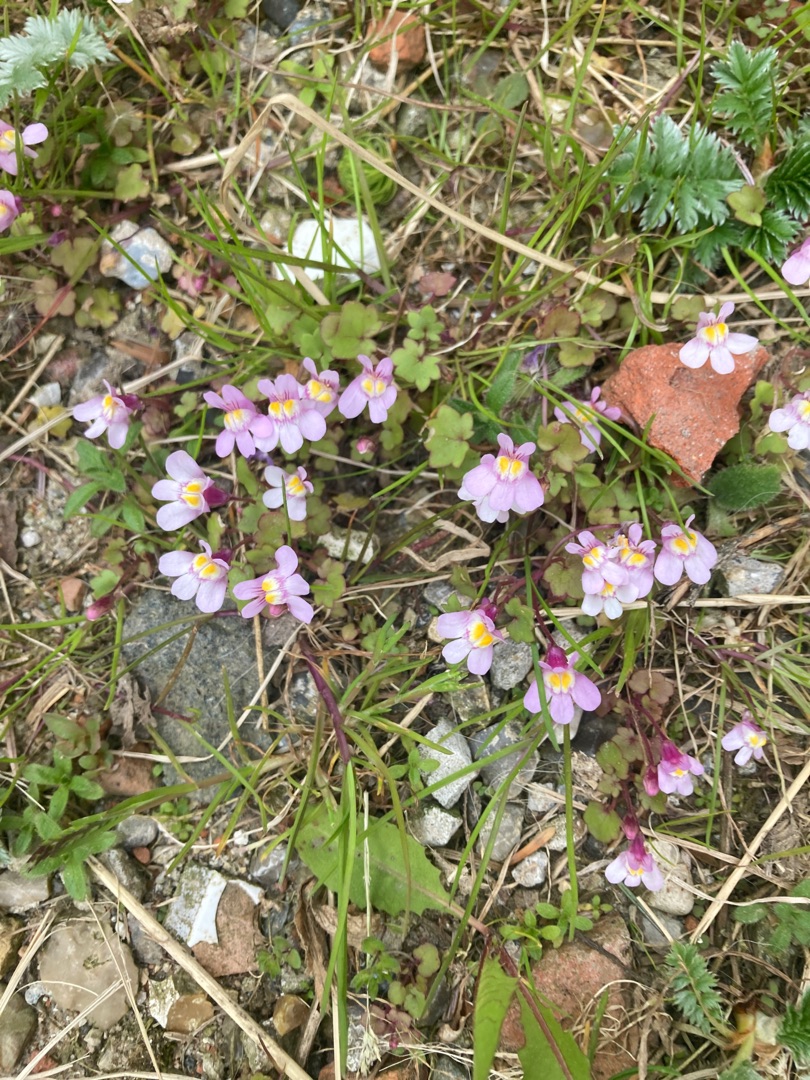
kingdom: Plantae
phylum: Tracheophyta
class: Magnoliopsida
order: Lamiales
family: Plantaginaceae
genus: Cymbalaria
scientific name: Cymbalaria muralis
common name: Vedbend-torskemund
